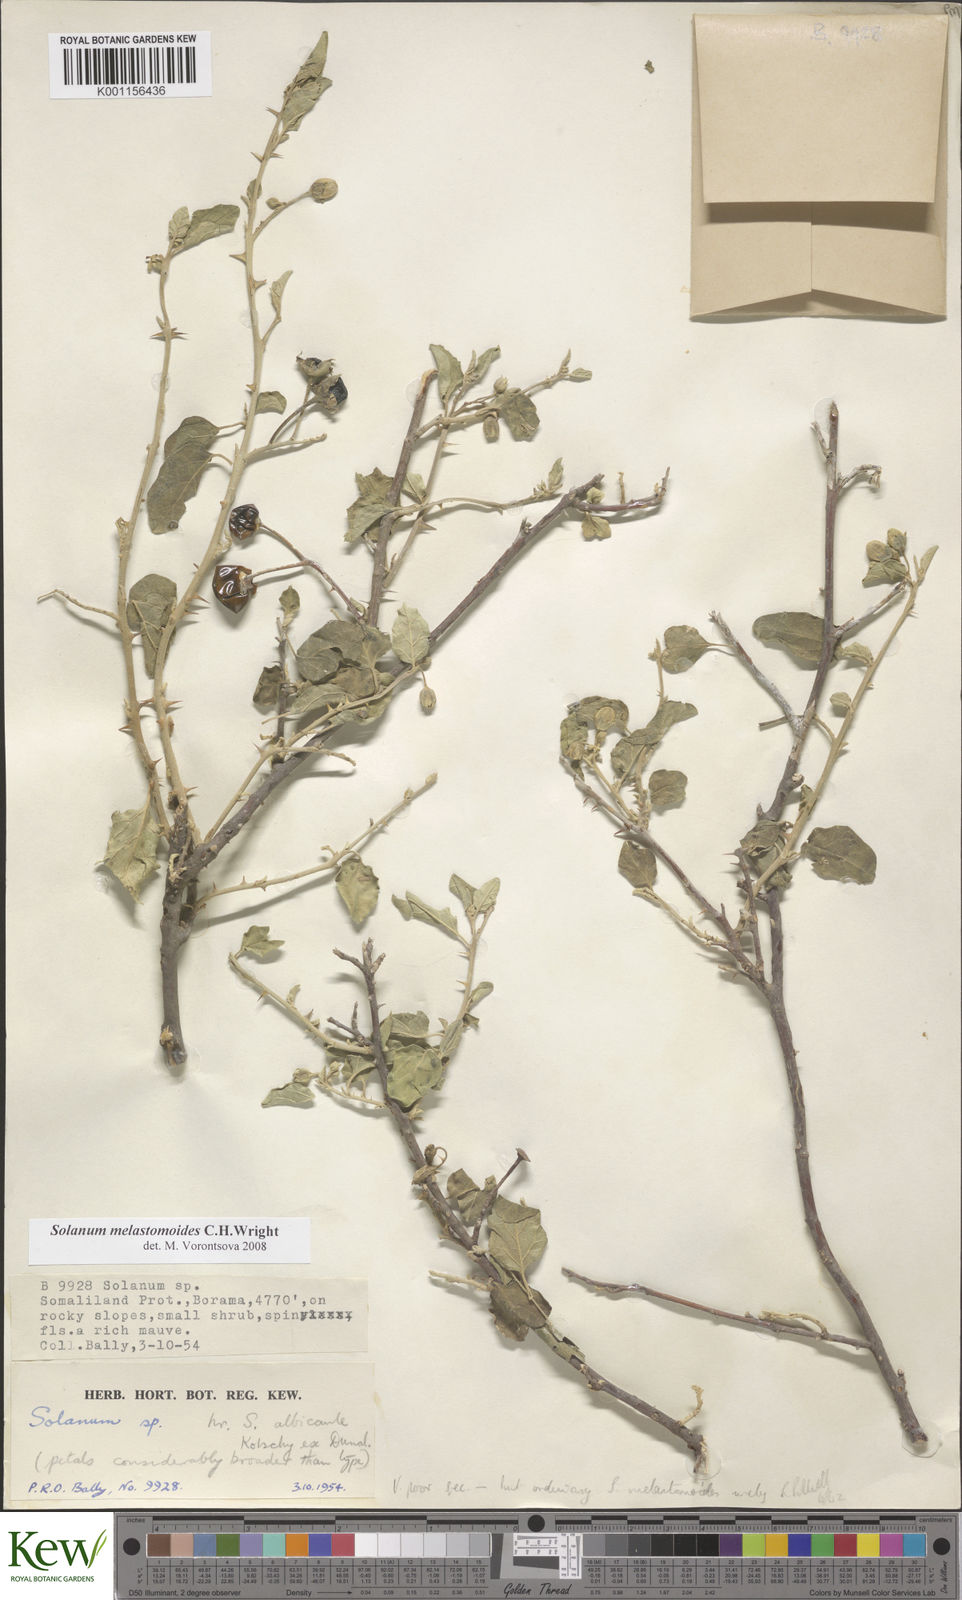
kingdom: Plantae
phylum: Tracheophyta
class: Magnoliopsida
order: Solanales
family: Solanaceae
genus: Solanum
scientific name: Solanum melastomoides
